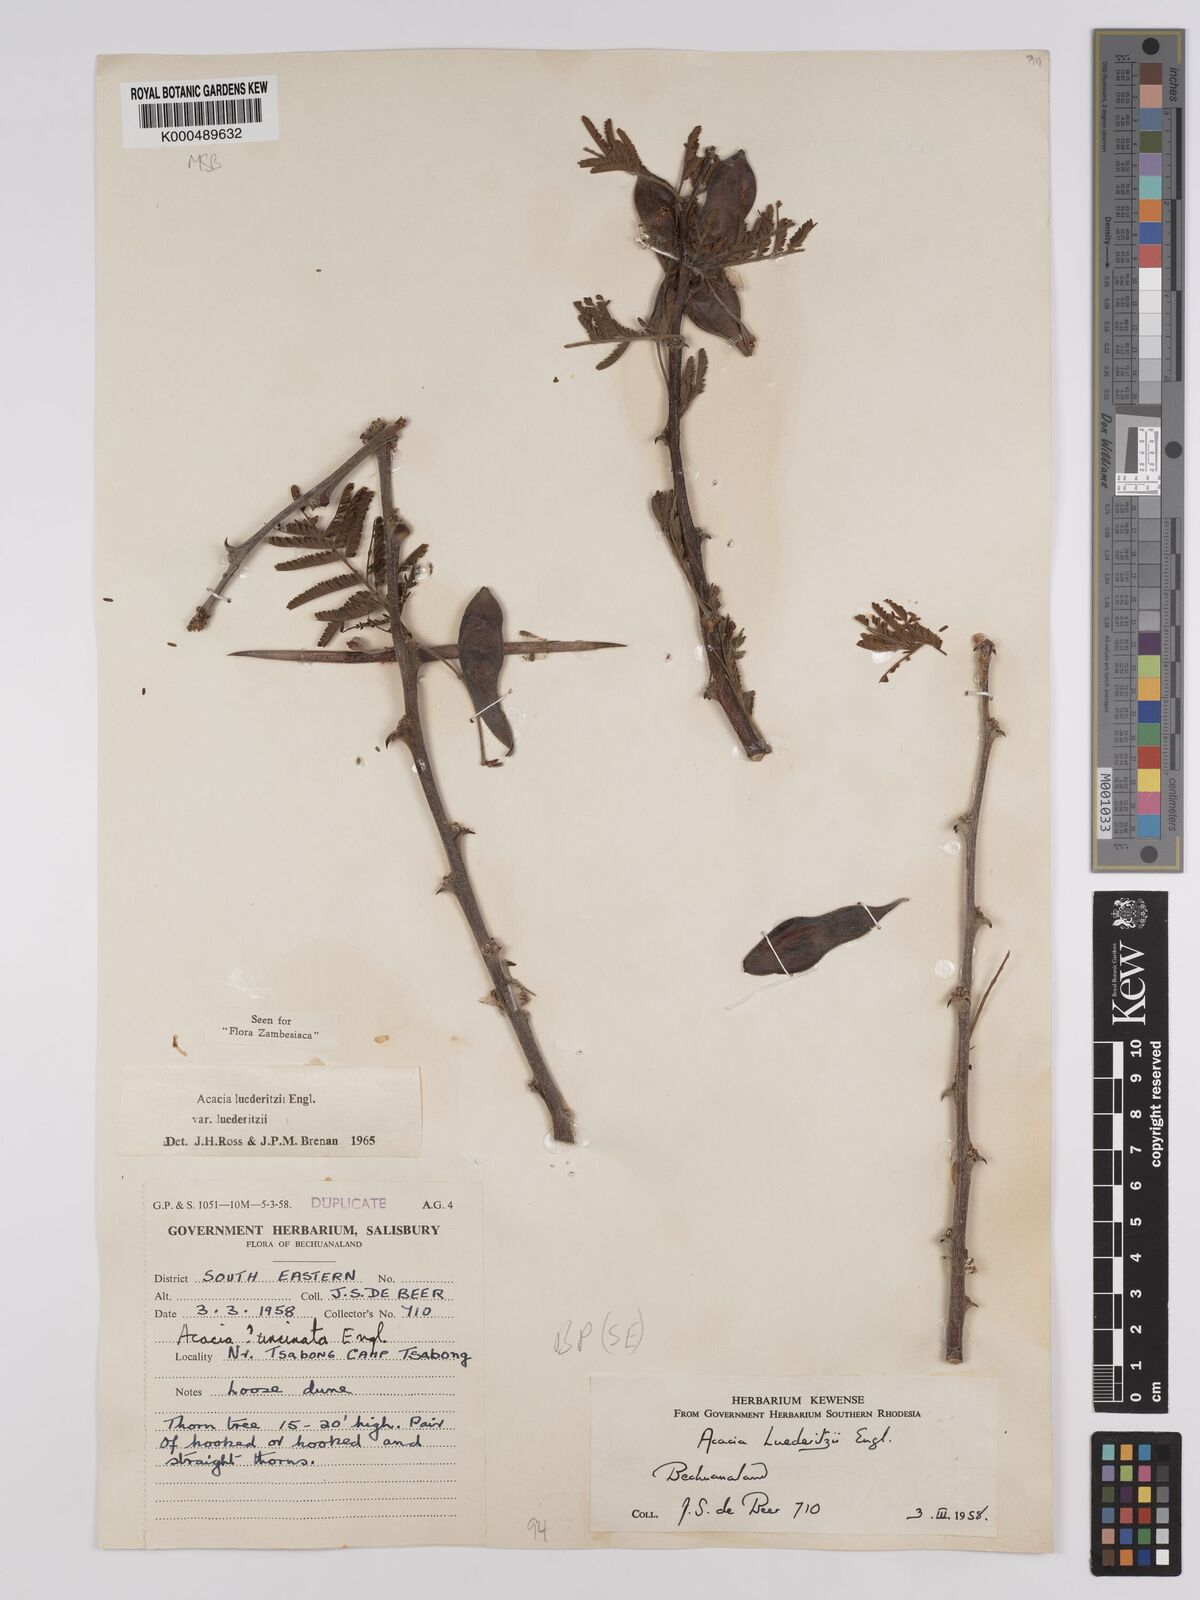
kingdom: Plantae
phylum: Tracheophyta
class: Magnoliopsida
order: Fabales
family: Fabaceae
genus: Vachellia
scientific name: Vachellia
